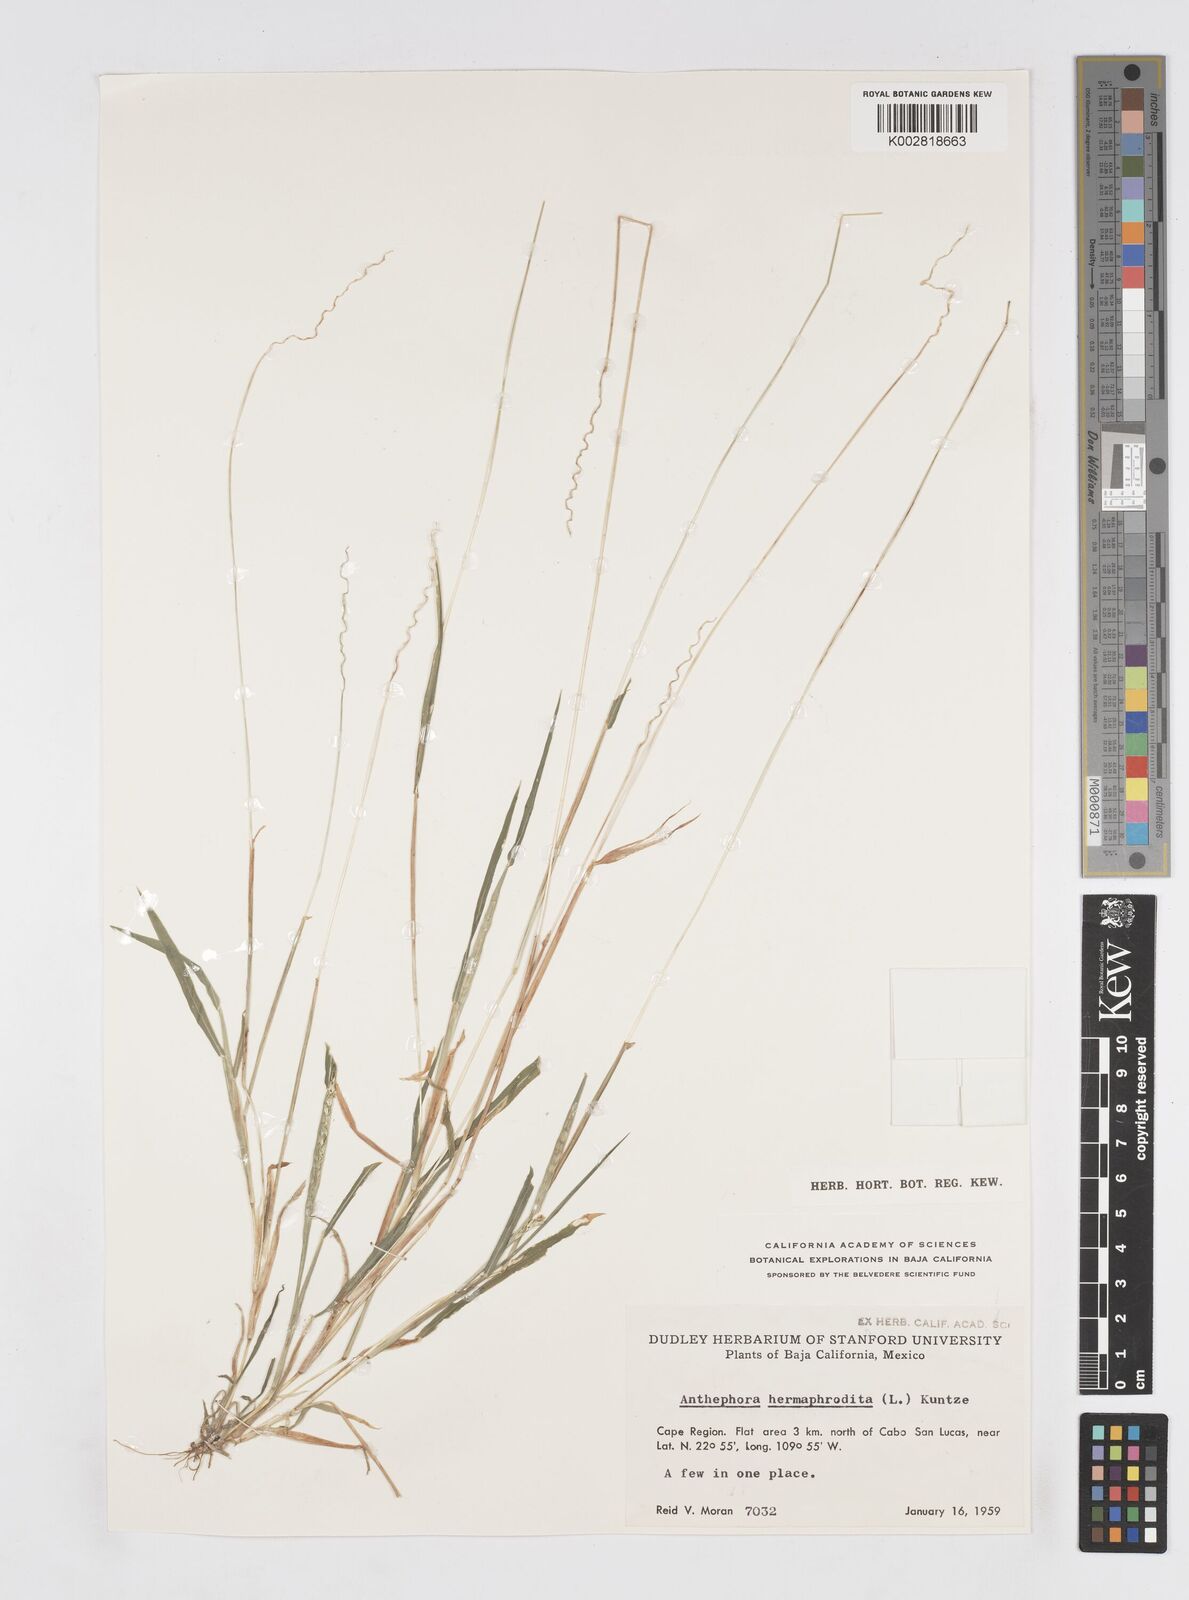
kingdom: Plantae
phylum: Tracheophyta
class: Liliopsida
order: Poales
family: Poaceae
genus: Anthephora
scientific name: Anthephora hermaphrodita
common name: Oldfield grass
